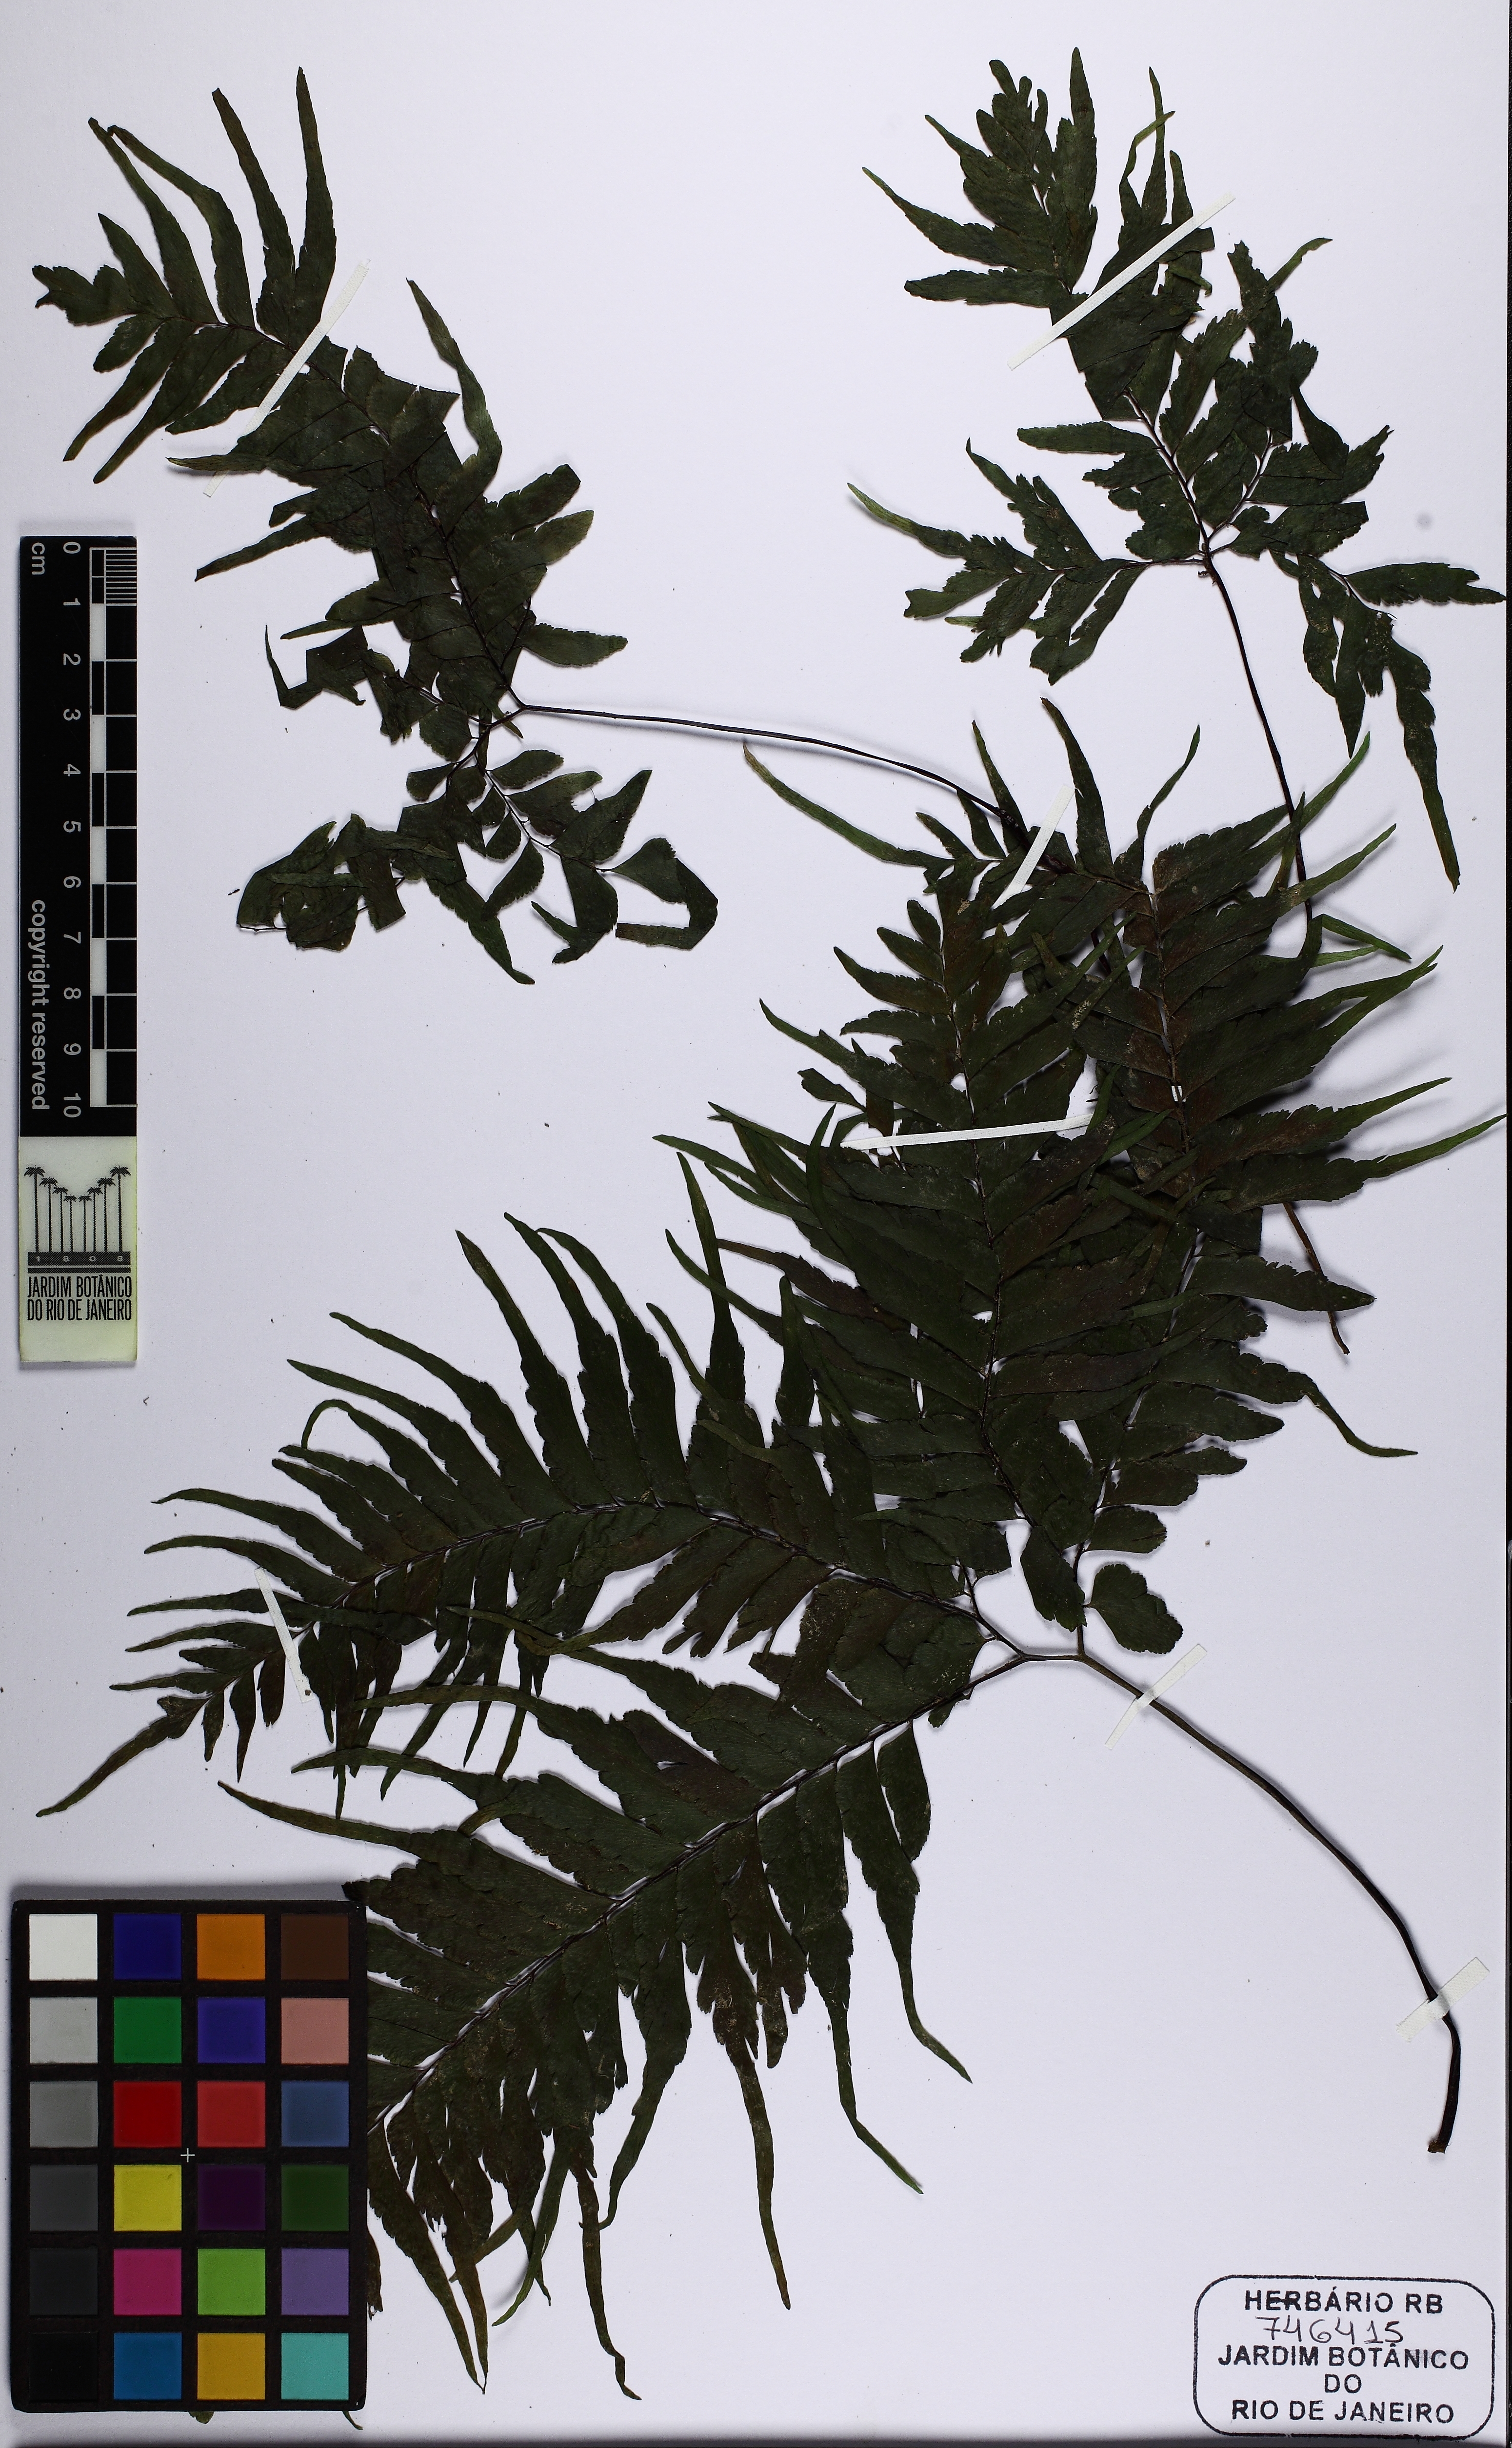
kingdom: Plantae
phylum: Tracheophyta
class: Polypodiopsida
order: Polypodiales
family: Pteridaceae
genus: Adiantum
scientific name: Adiantum
